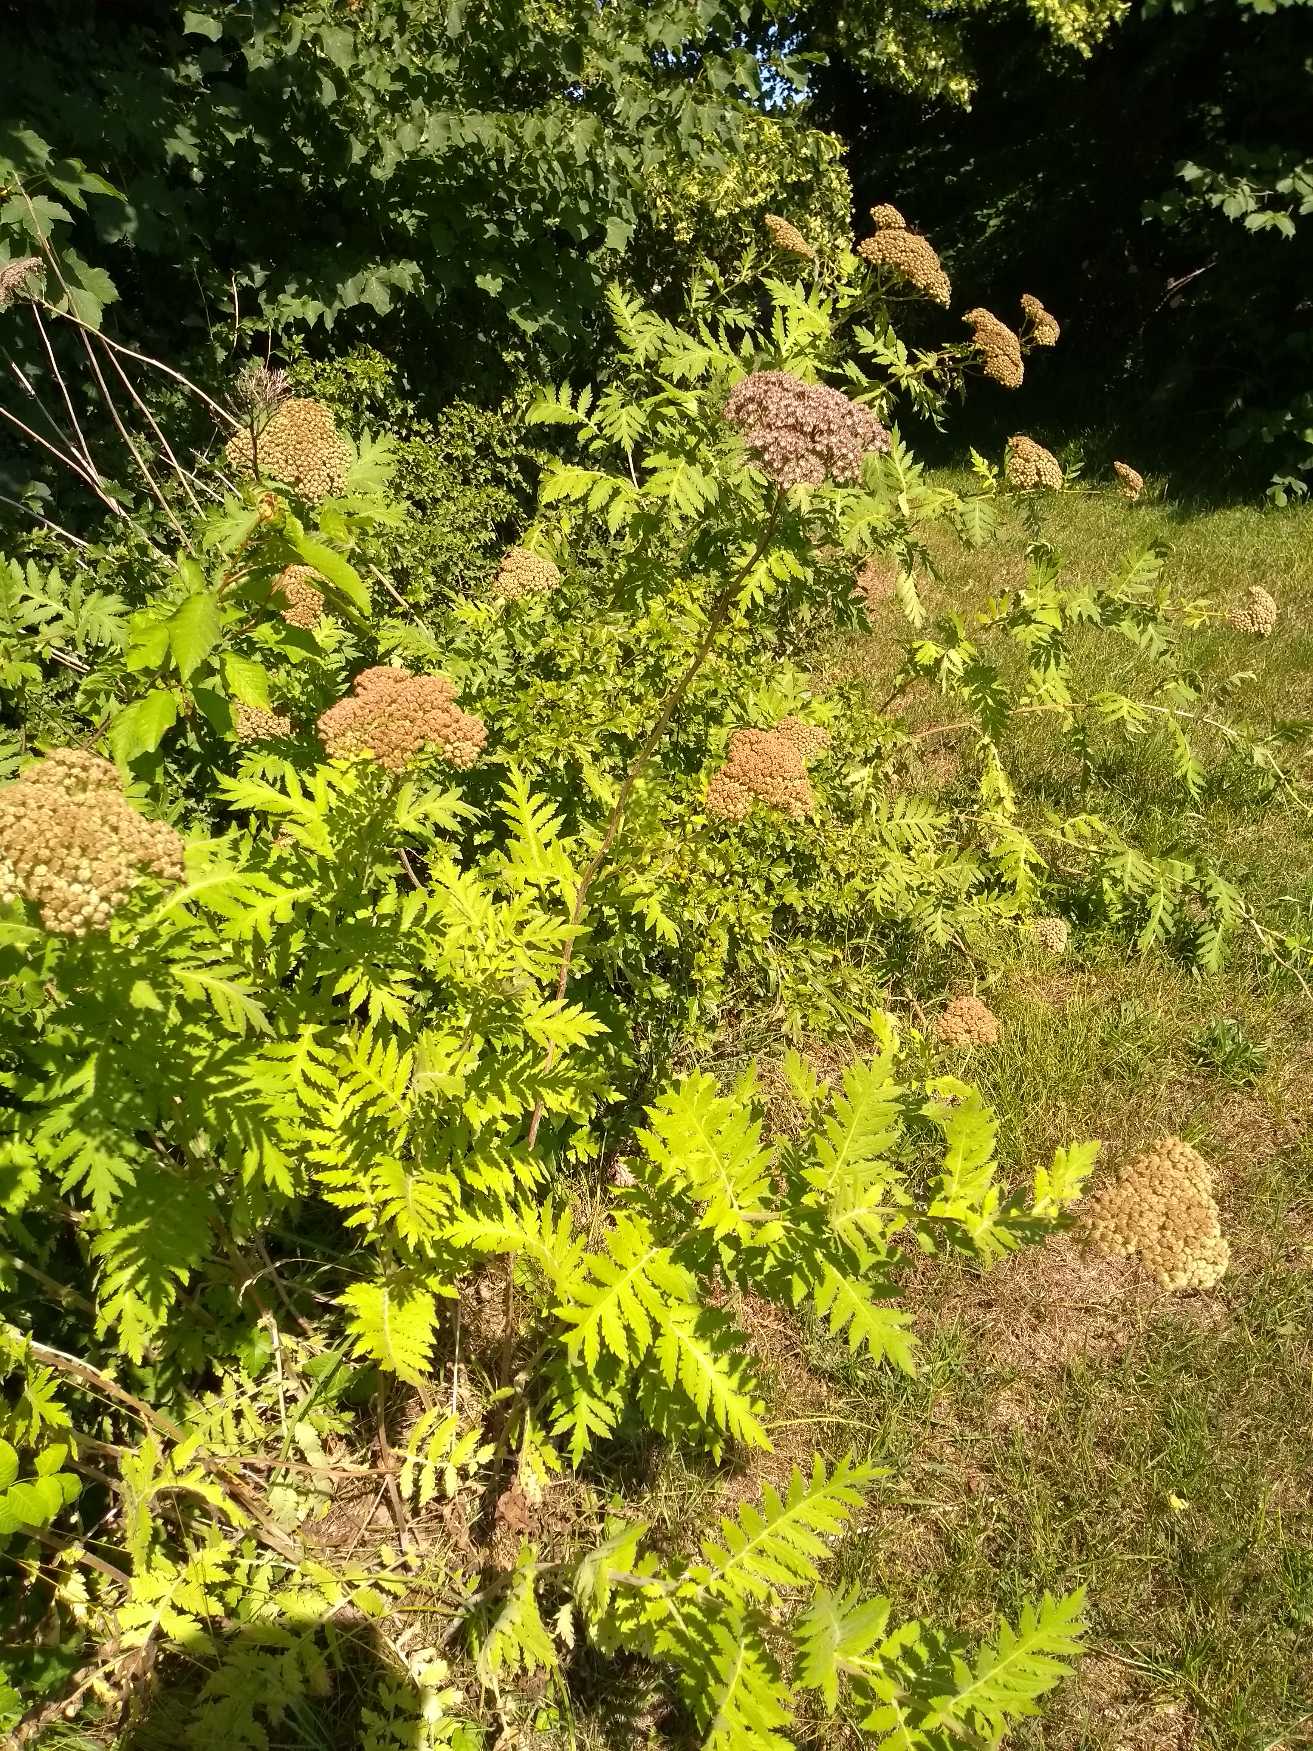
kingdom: Plantae
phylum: Tracheophyta
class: Magnoliopsida
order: Asterales
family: Asteraceae
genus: Tanacetum
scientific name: Tanacetum macrophyllum
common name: Røllike-matrem
